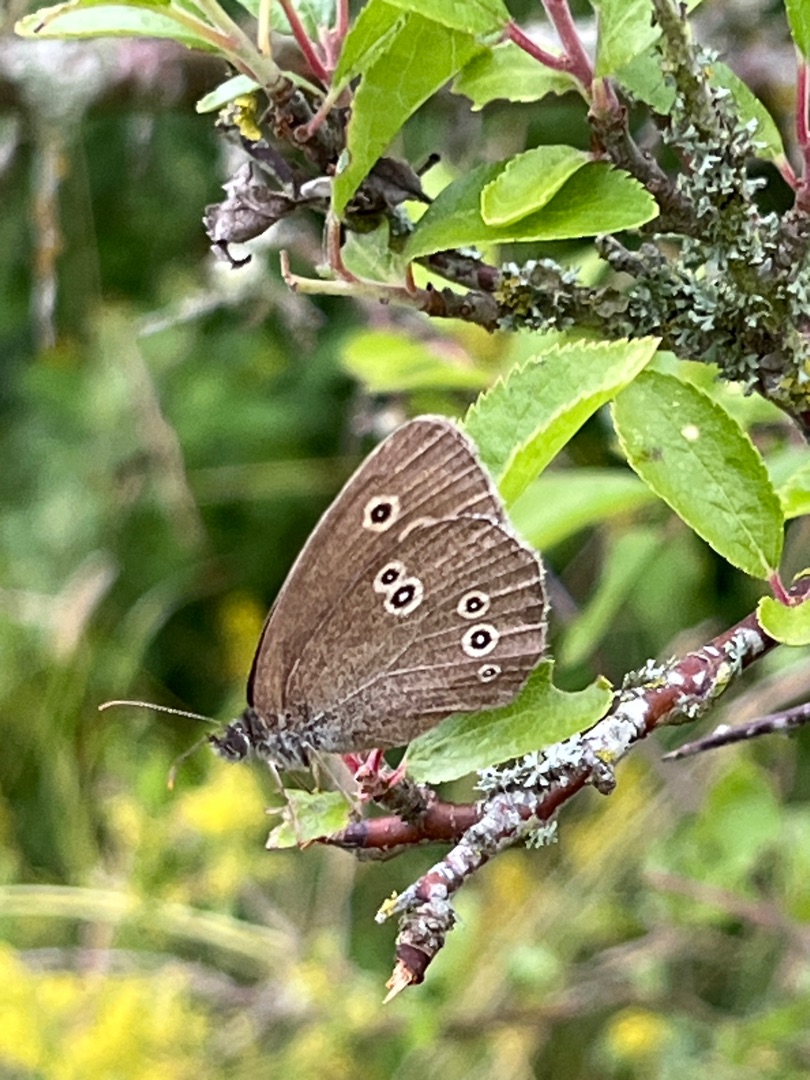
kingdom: Animalia
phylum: Arthropoda
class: Insecta
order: Lepidoptera
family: Nymphalidae
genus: Aphantopus
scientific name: Aphantopus hyperantus
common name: Engrandøje
